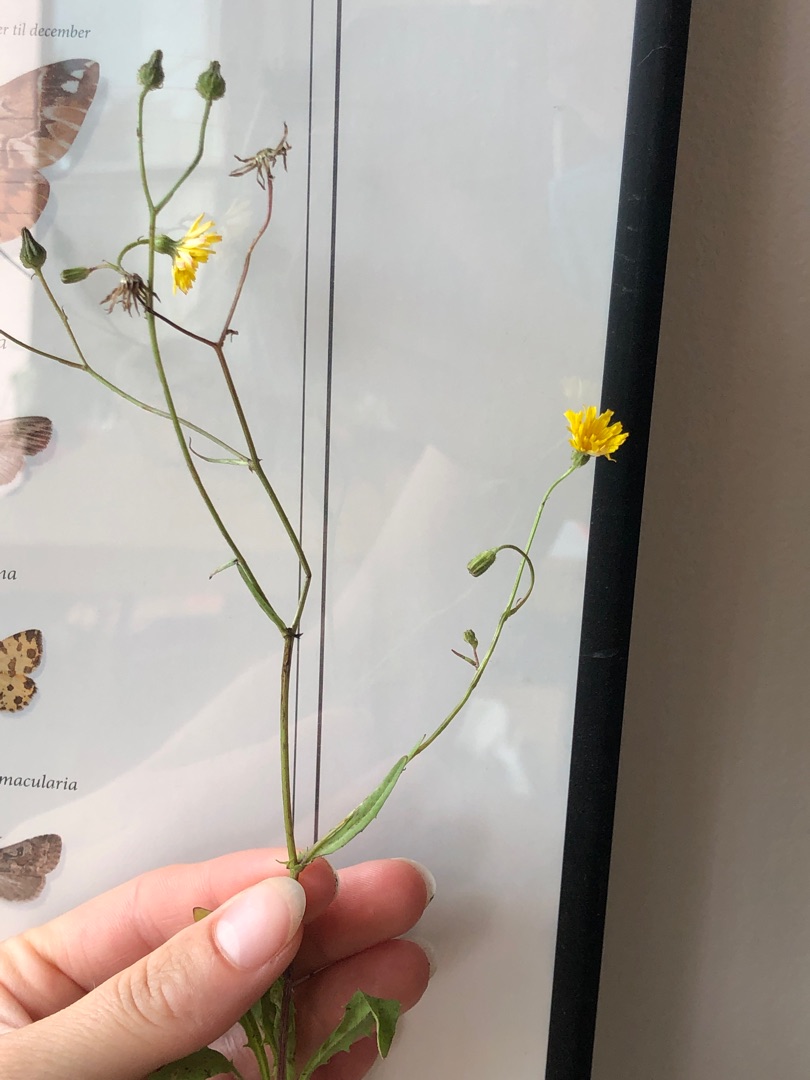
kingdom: Plantae
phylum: Tracheophyta
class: Magnoliopsida
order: Asterales
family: Asteraceae
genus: Crepis
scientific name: Crepis capillaris
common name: Grøn høgeskæg
